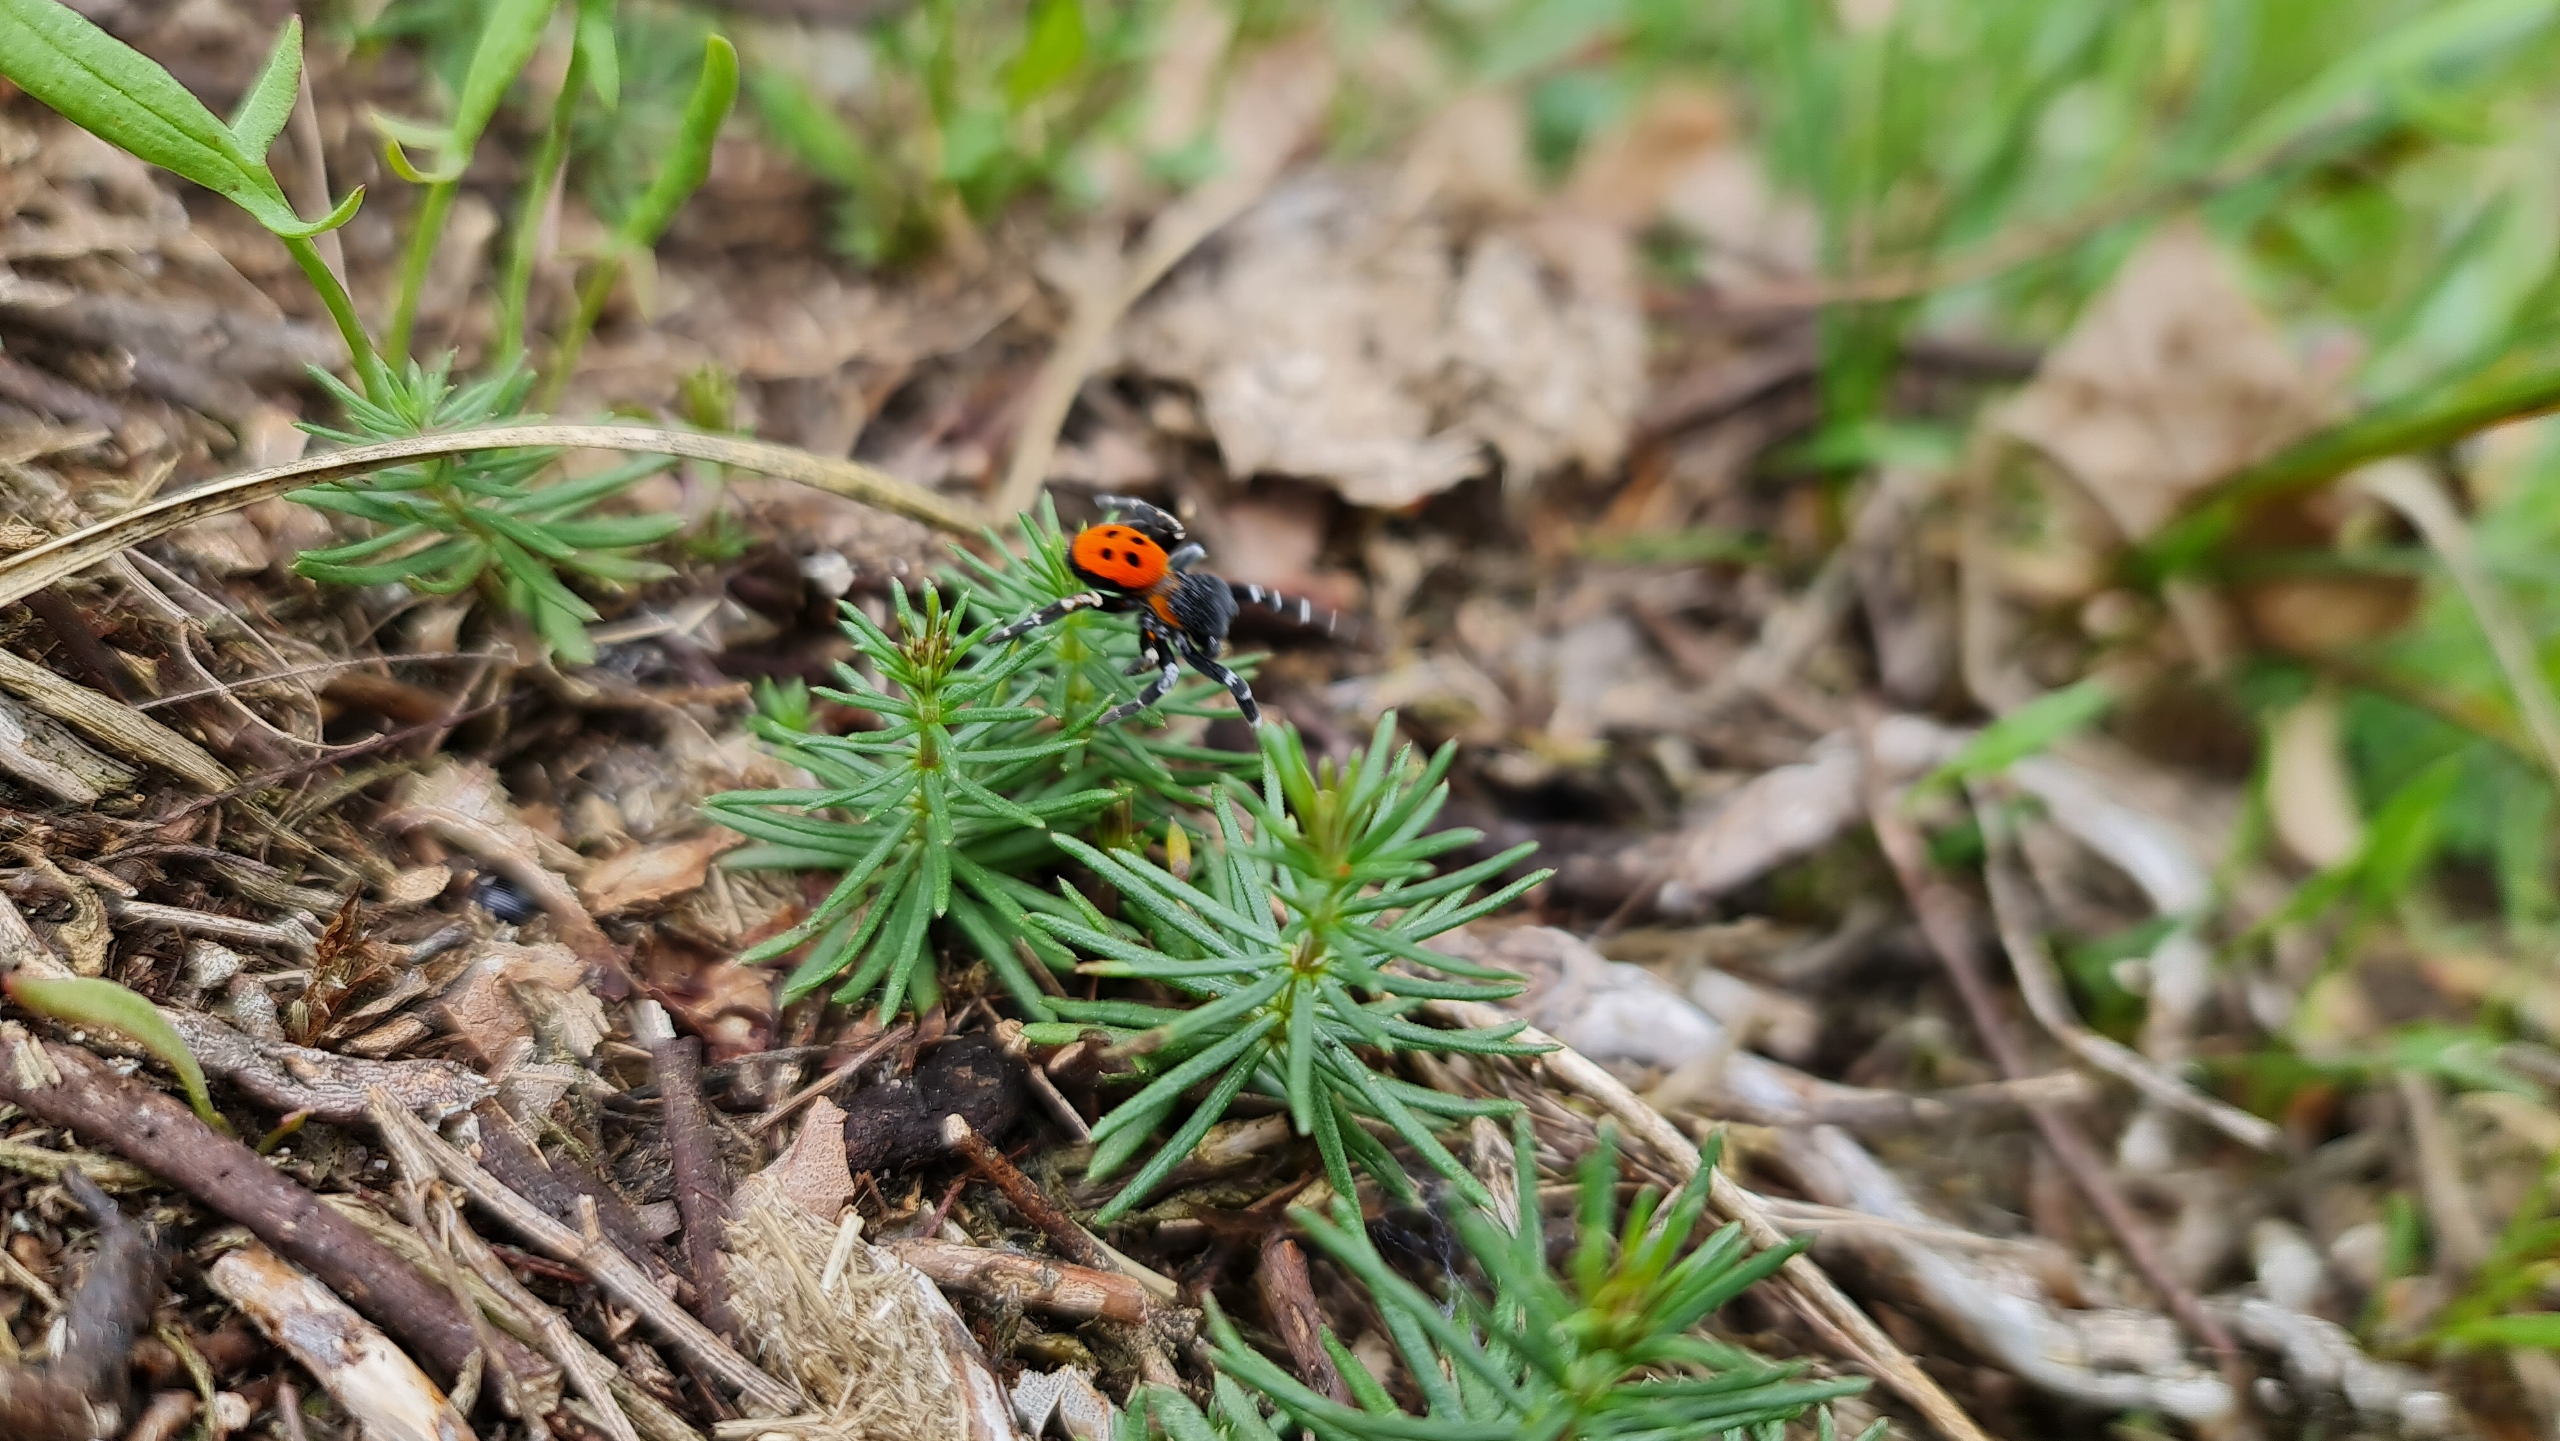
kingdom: Animalia
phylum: Arthropoda
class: Arachnida
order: Araneae
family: Eresidae
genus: Eresus
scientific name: Eresus sandaliatus
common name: Mariehøneedderkop
